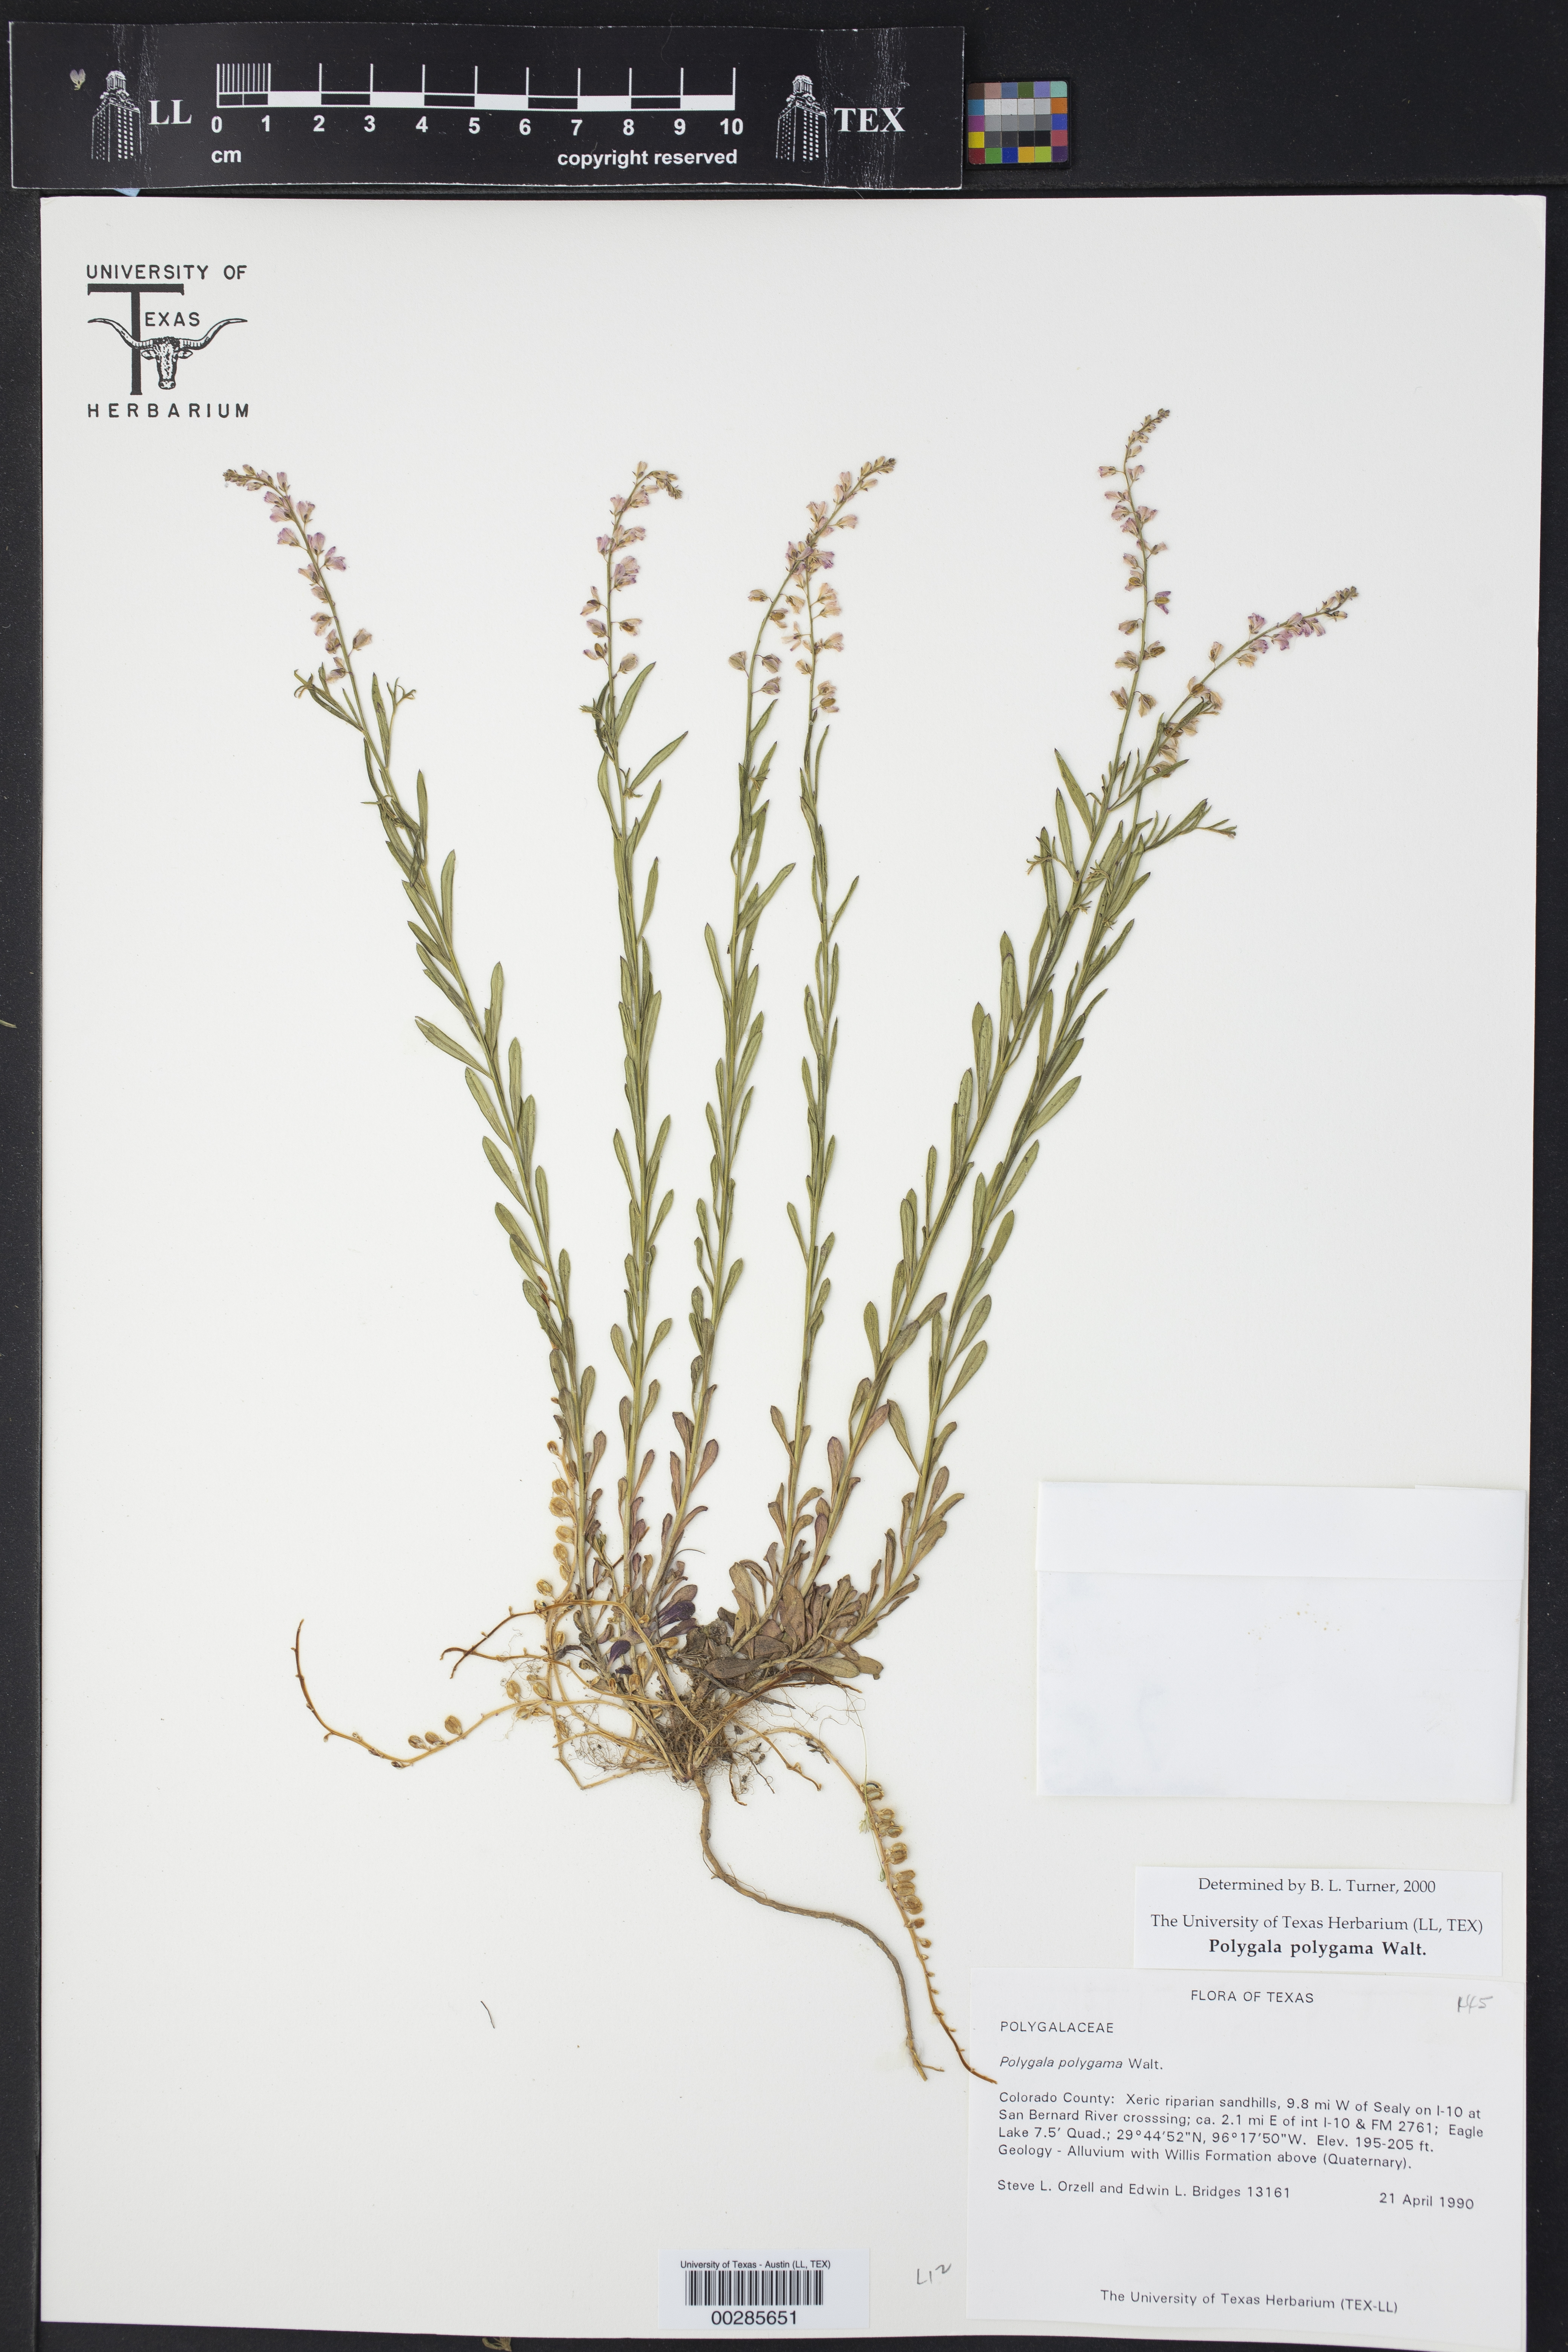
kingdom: Plantae
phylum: Tracheophyta
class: Magnoliopsida
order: Fabales
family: Polygalaceae
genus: Polygala
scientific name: Polygala polygama
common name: Bitter milkwort
